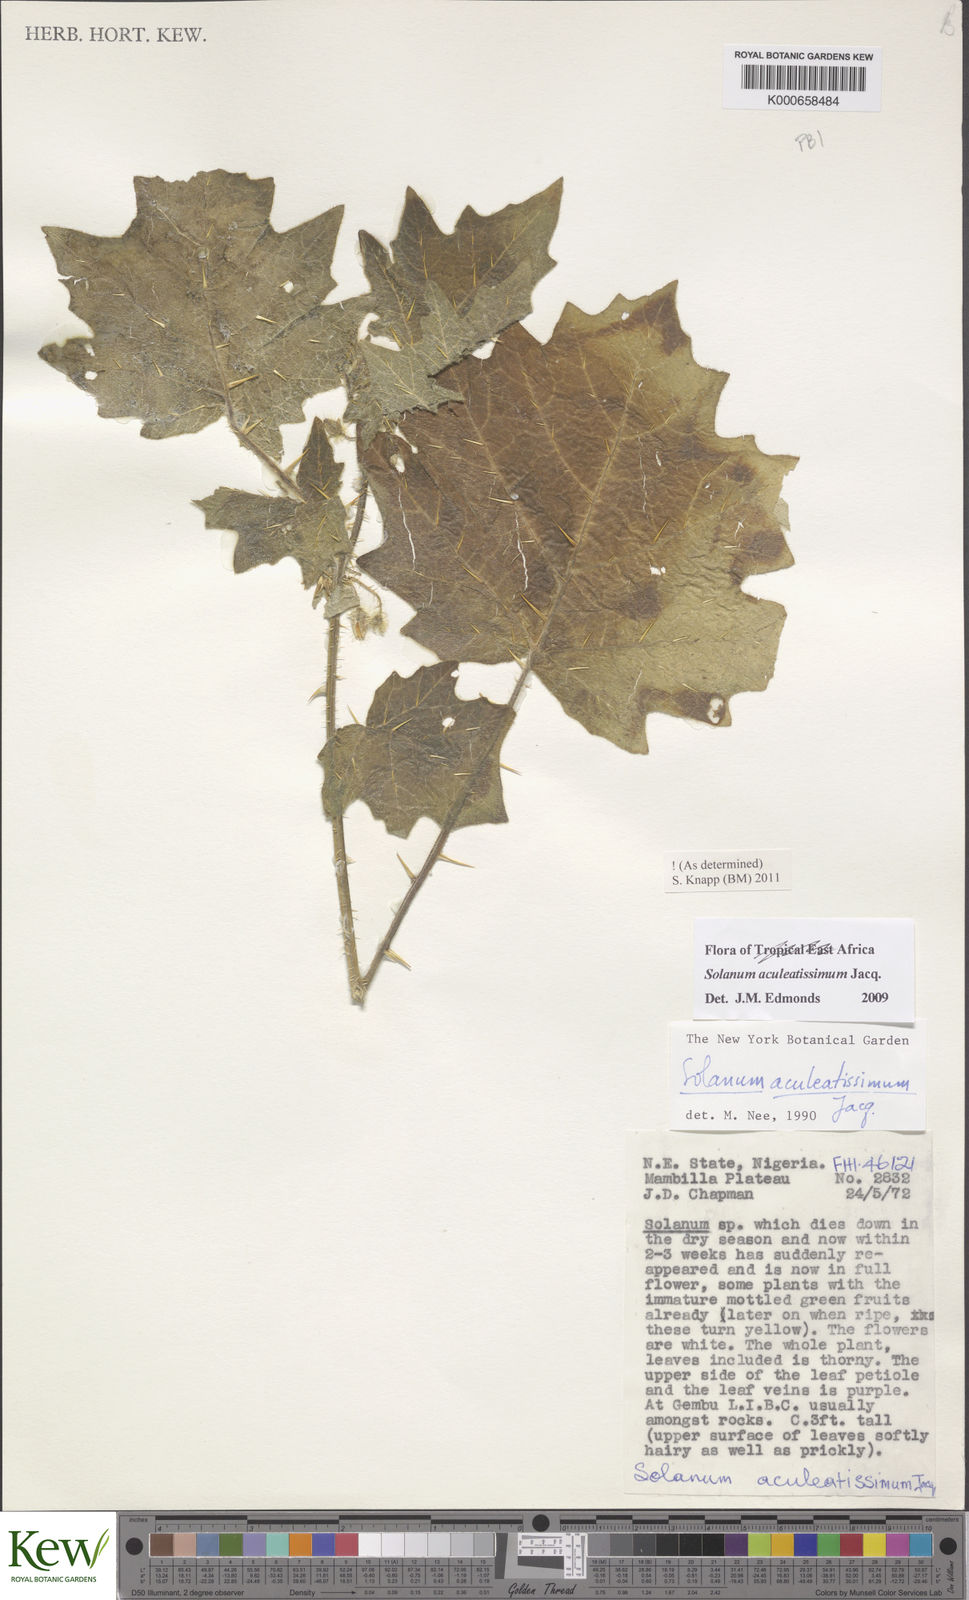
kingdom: Plantae
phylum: Tracheophyta
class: Magnoliopsida
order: Solanales
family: Solanaceae
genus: Solanum
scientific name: Solanum aculeatissimum
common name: Dutch eggplant
